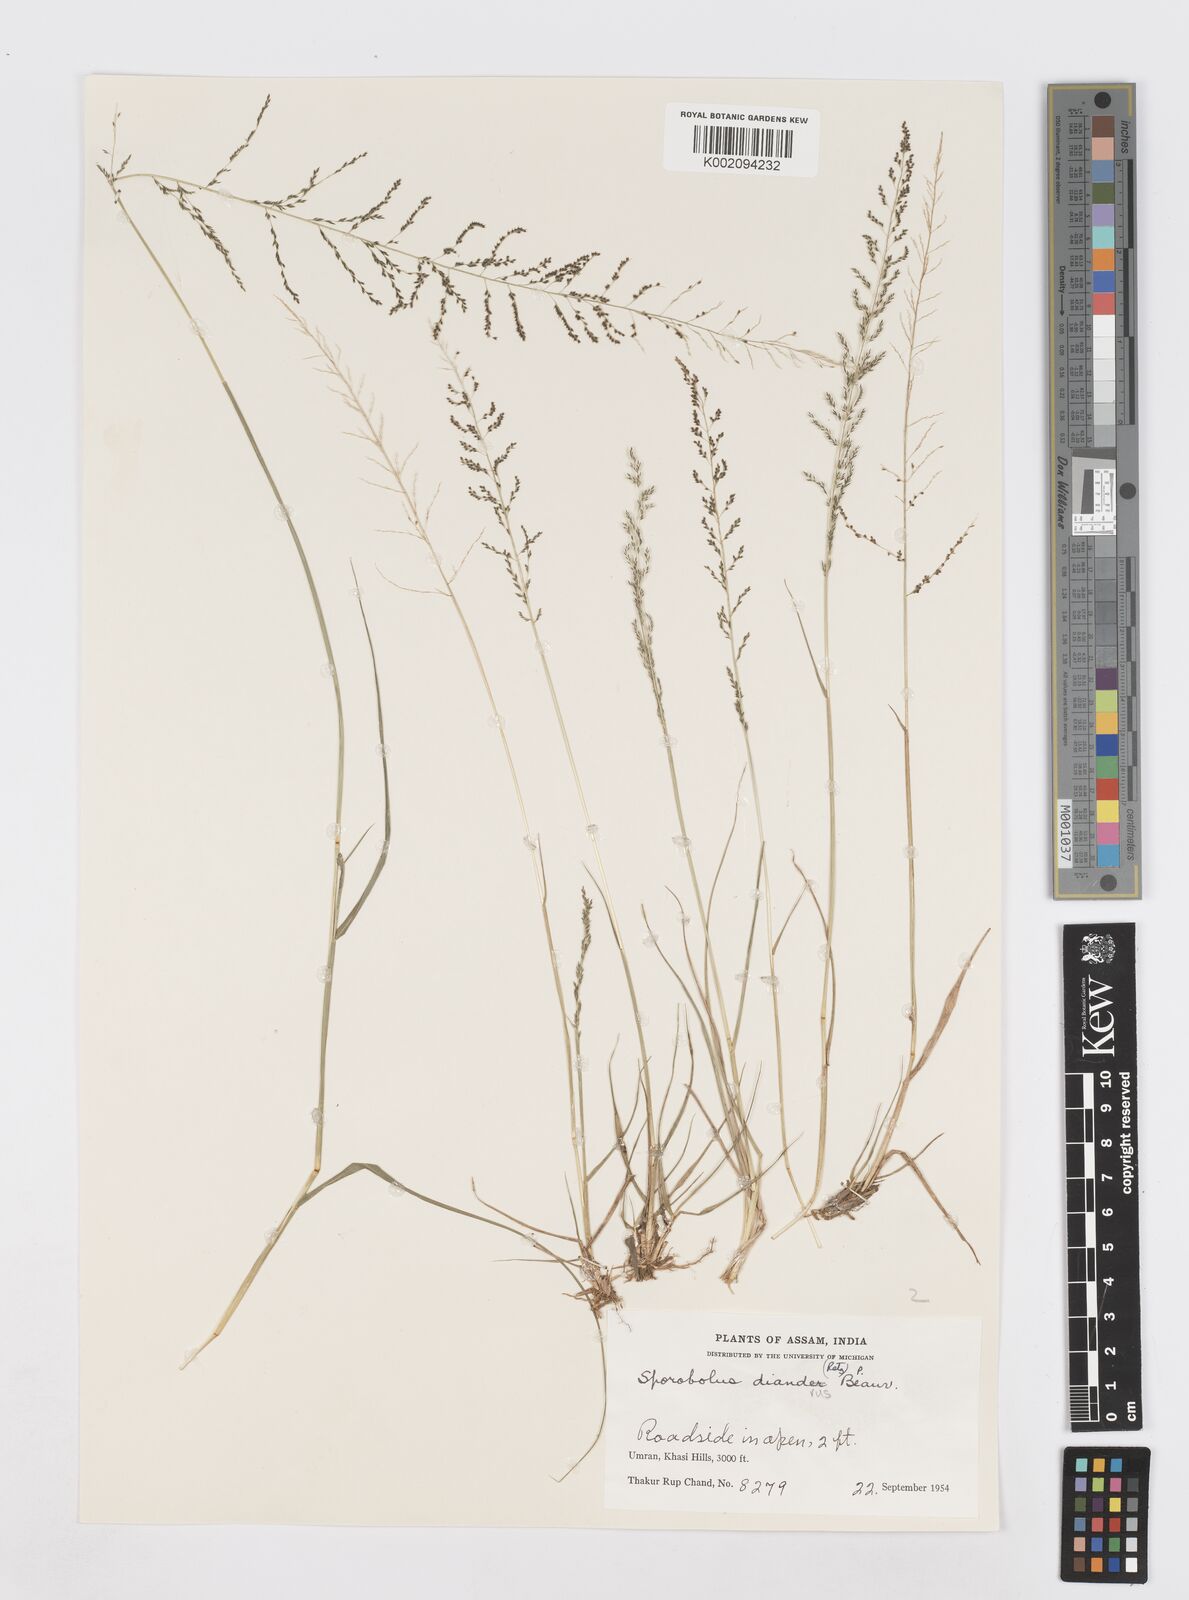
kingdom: Plantae
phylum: Tracheophyta
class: Liliopsida
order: Poales
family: Poaceae
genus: Sporobolus
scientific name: Sporobolus diandrus
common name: Tussock dropseed
